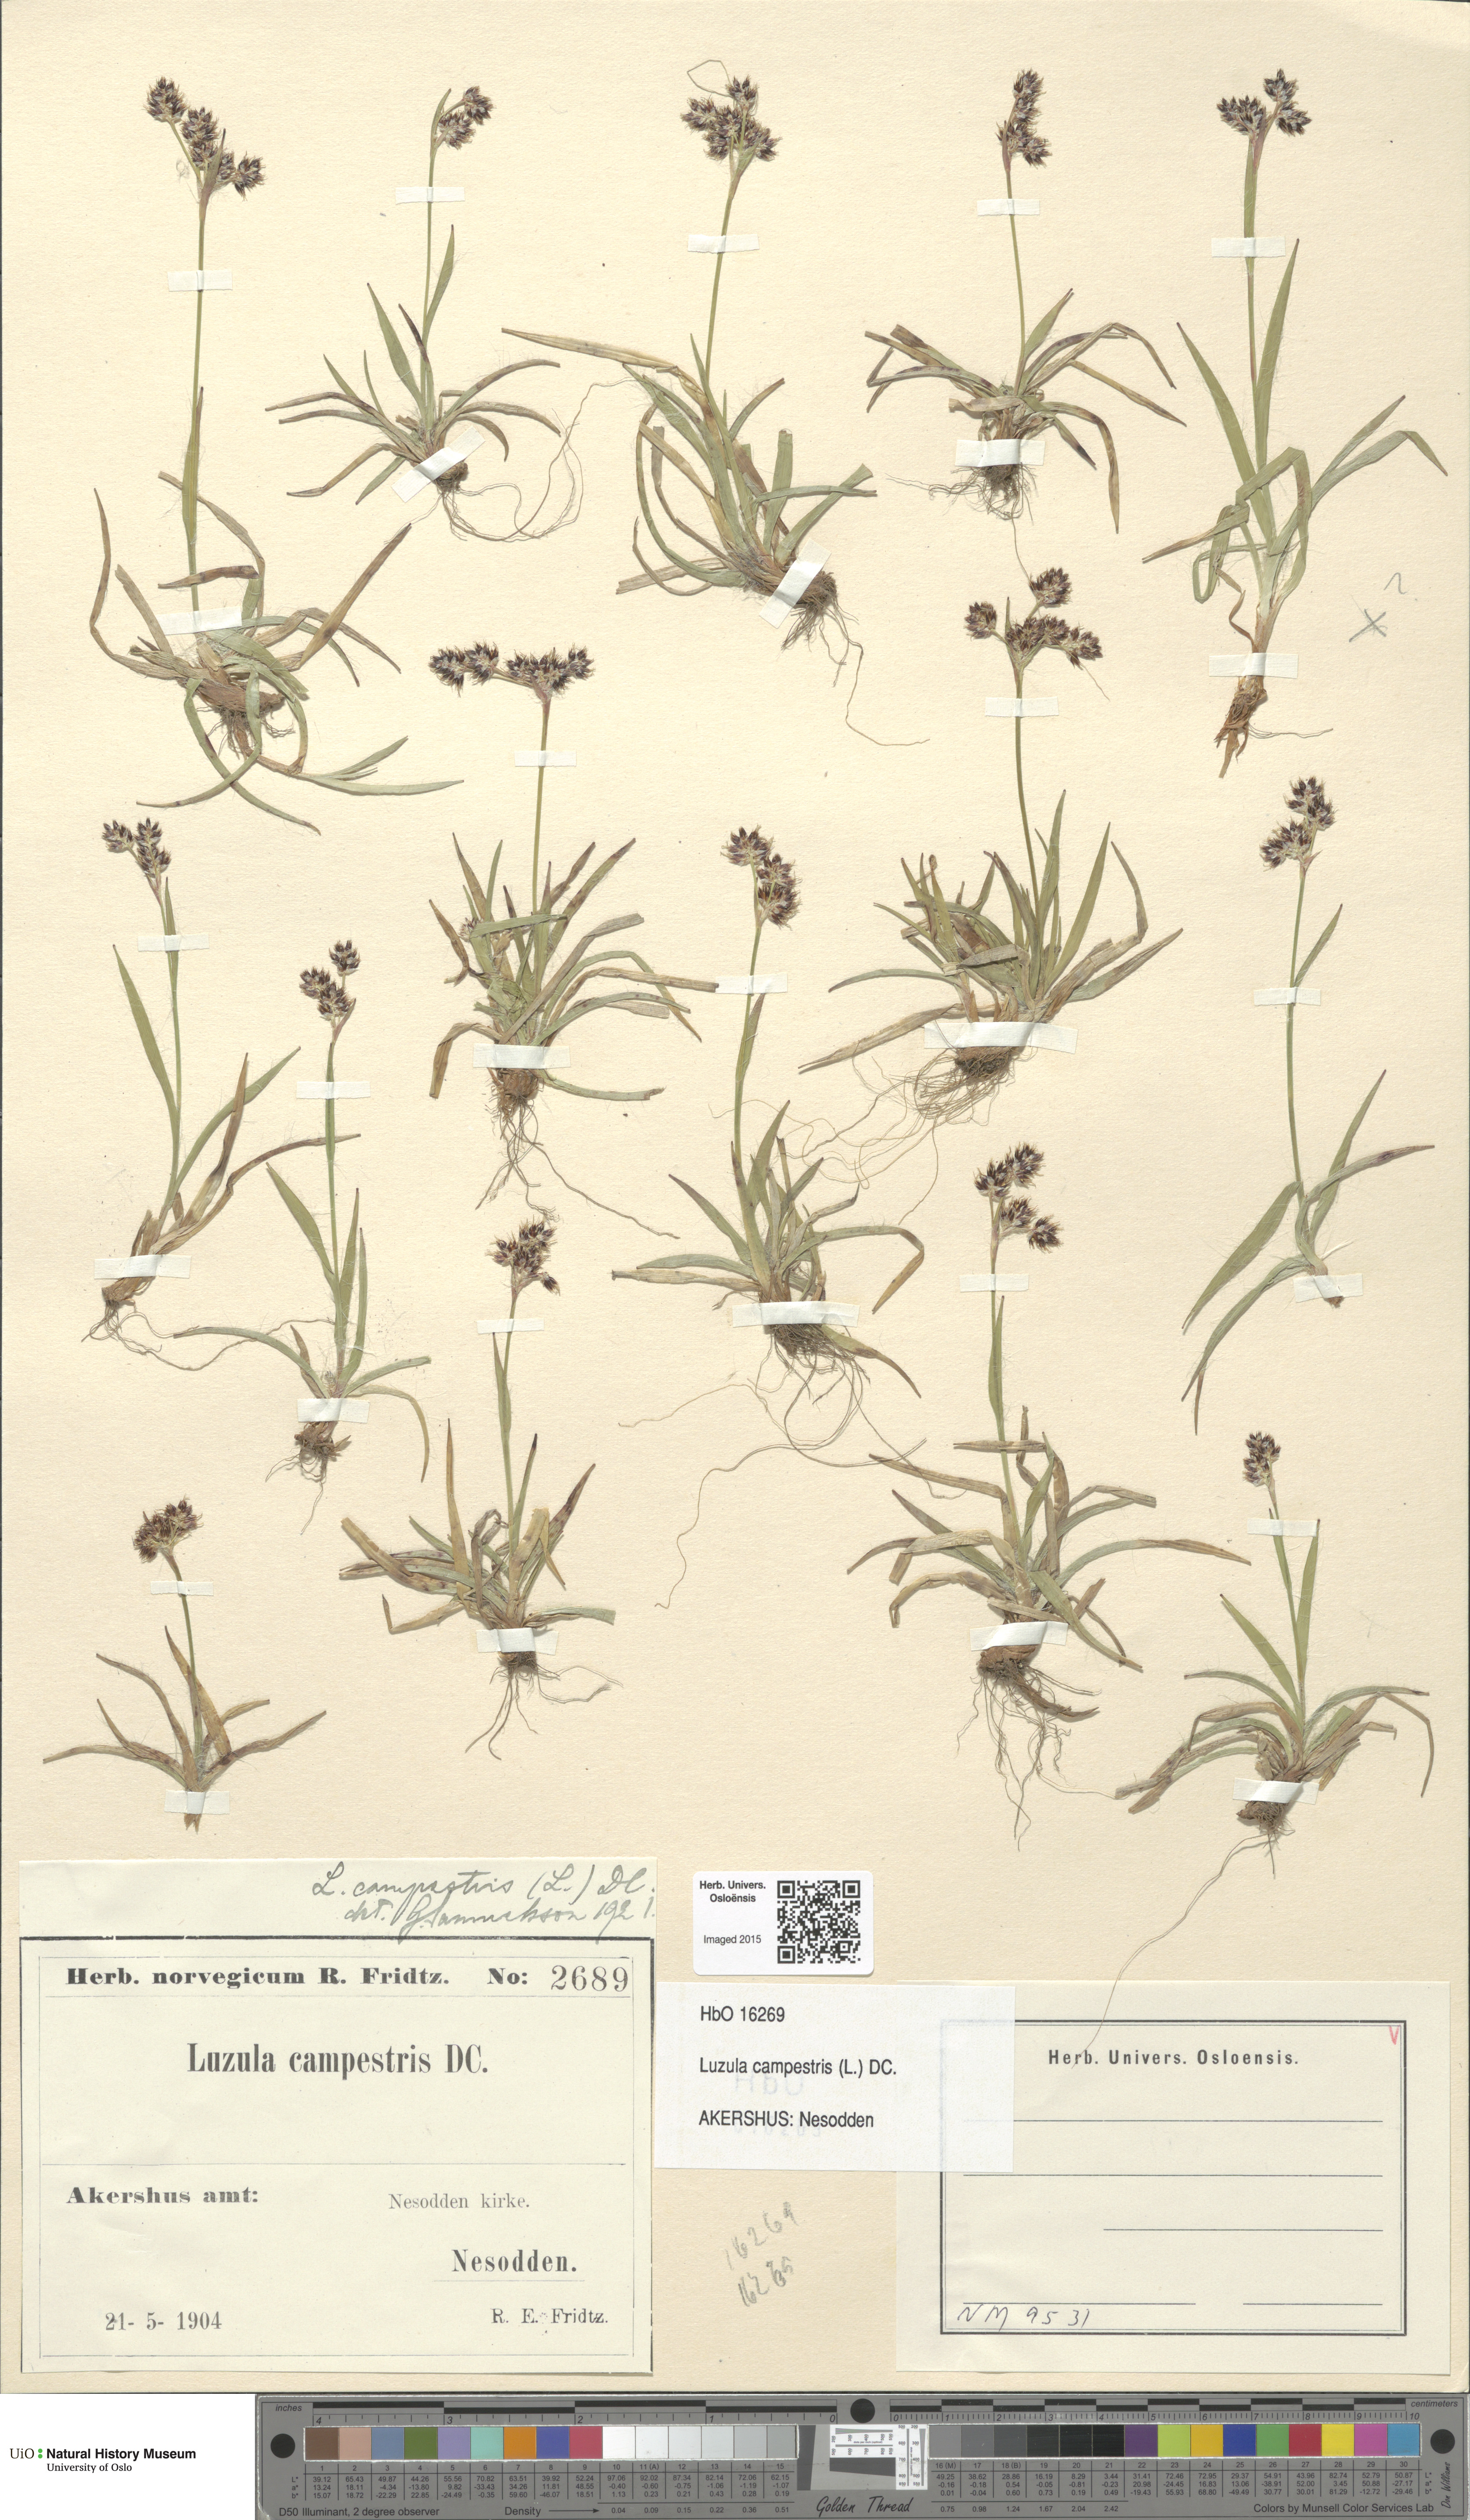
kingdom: Plantae
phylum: Tracheophyta
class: Liliopsida
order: Poales
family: Juncaceae
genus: Luzula
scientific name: Luzula campestris
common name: Field wood-rush
